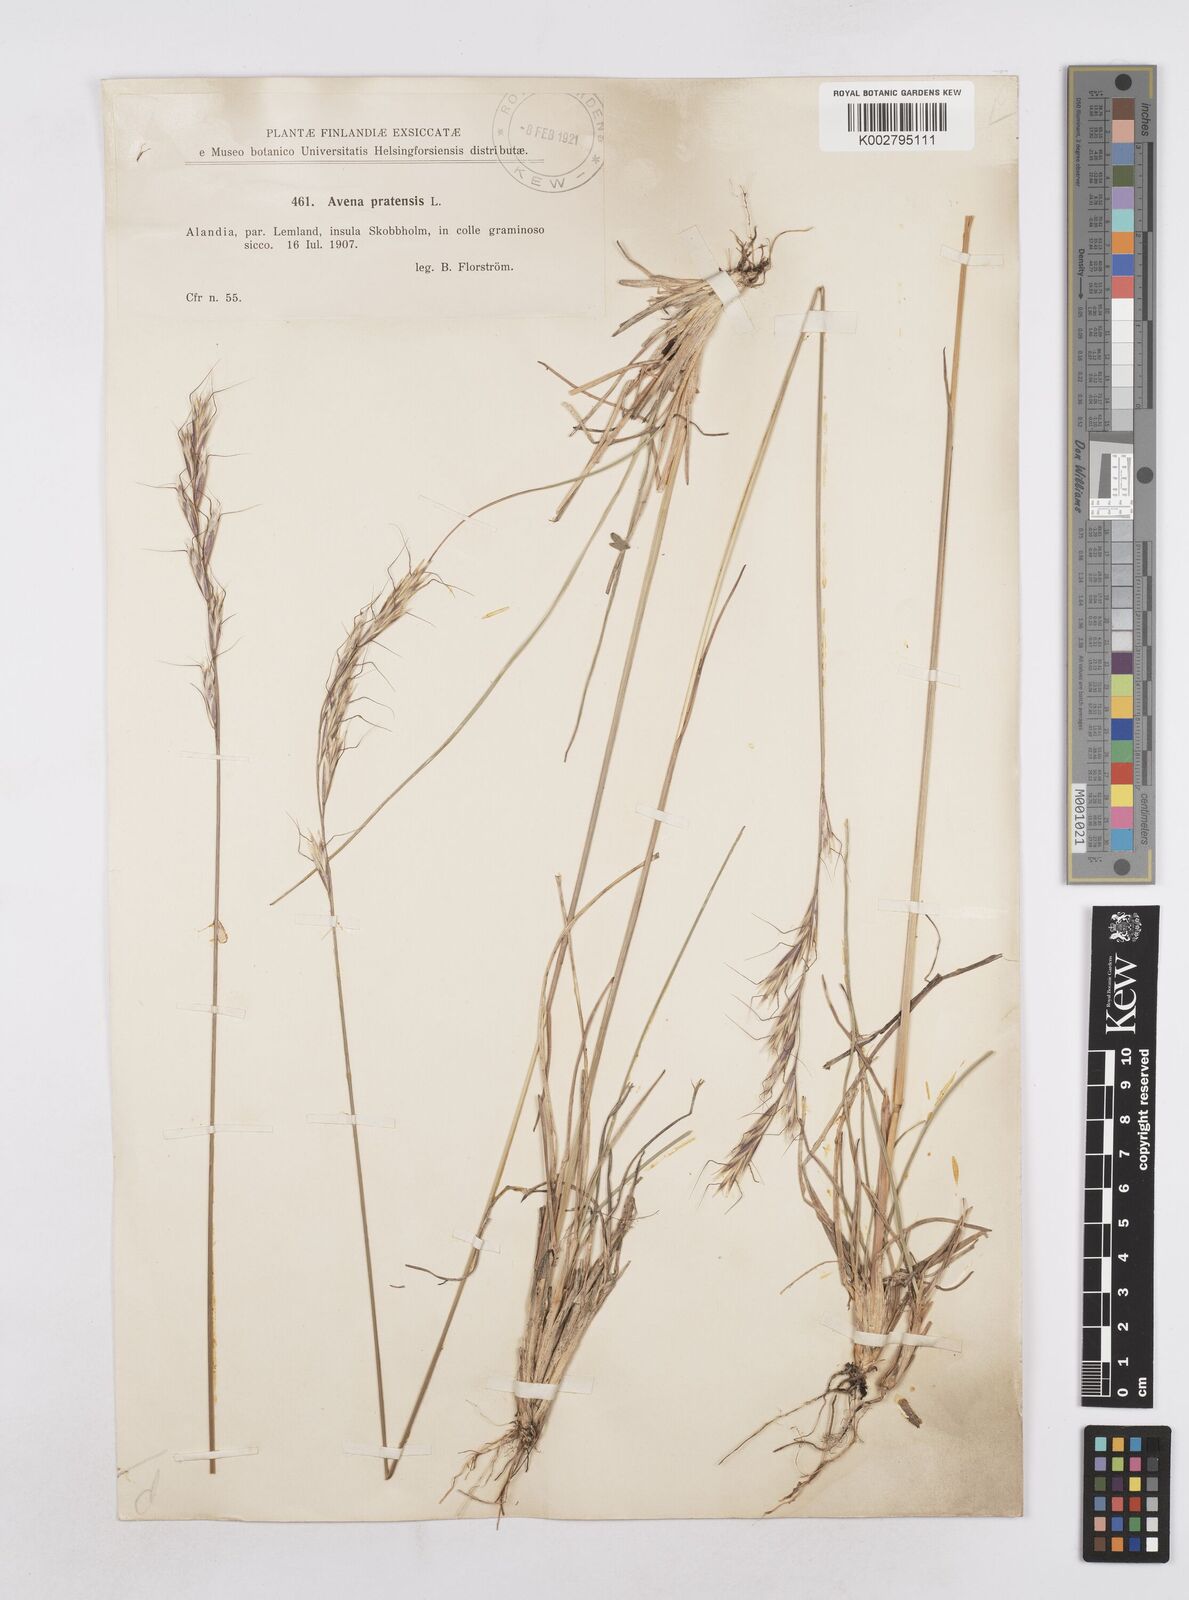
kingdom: Plantae
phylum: Tracheophyta
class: Liliopsida
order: Poales
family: Poaceae
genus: Helictochloa
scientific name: Helictochloa pratensis
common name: Meadow oat grass
